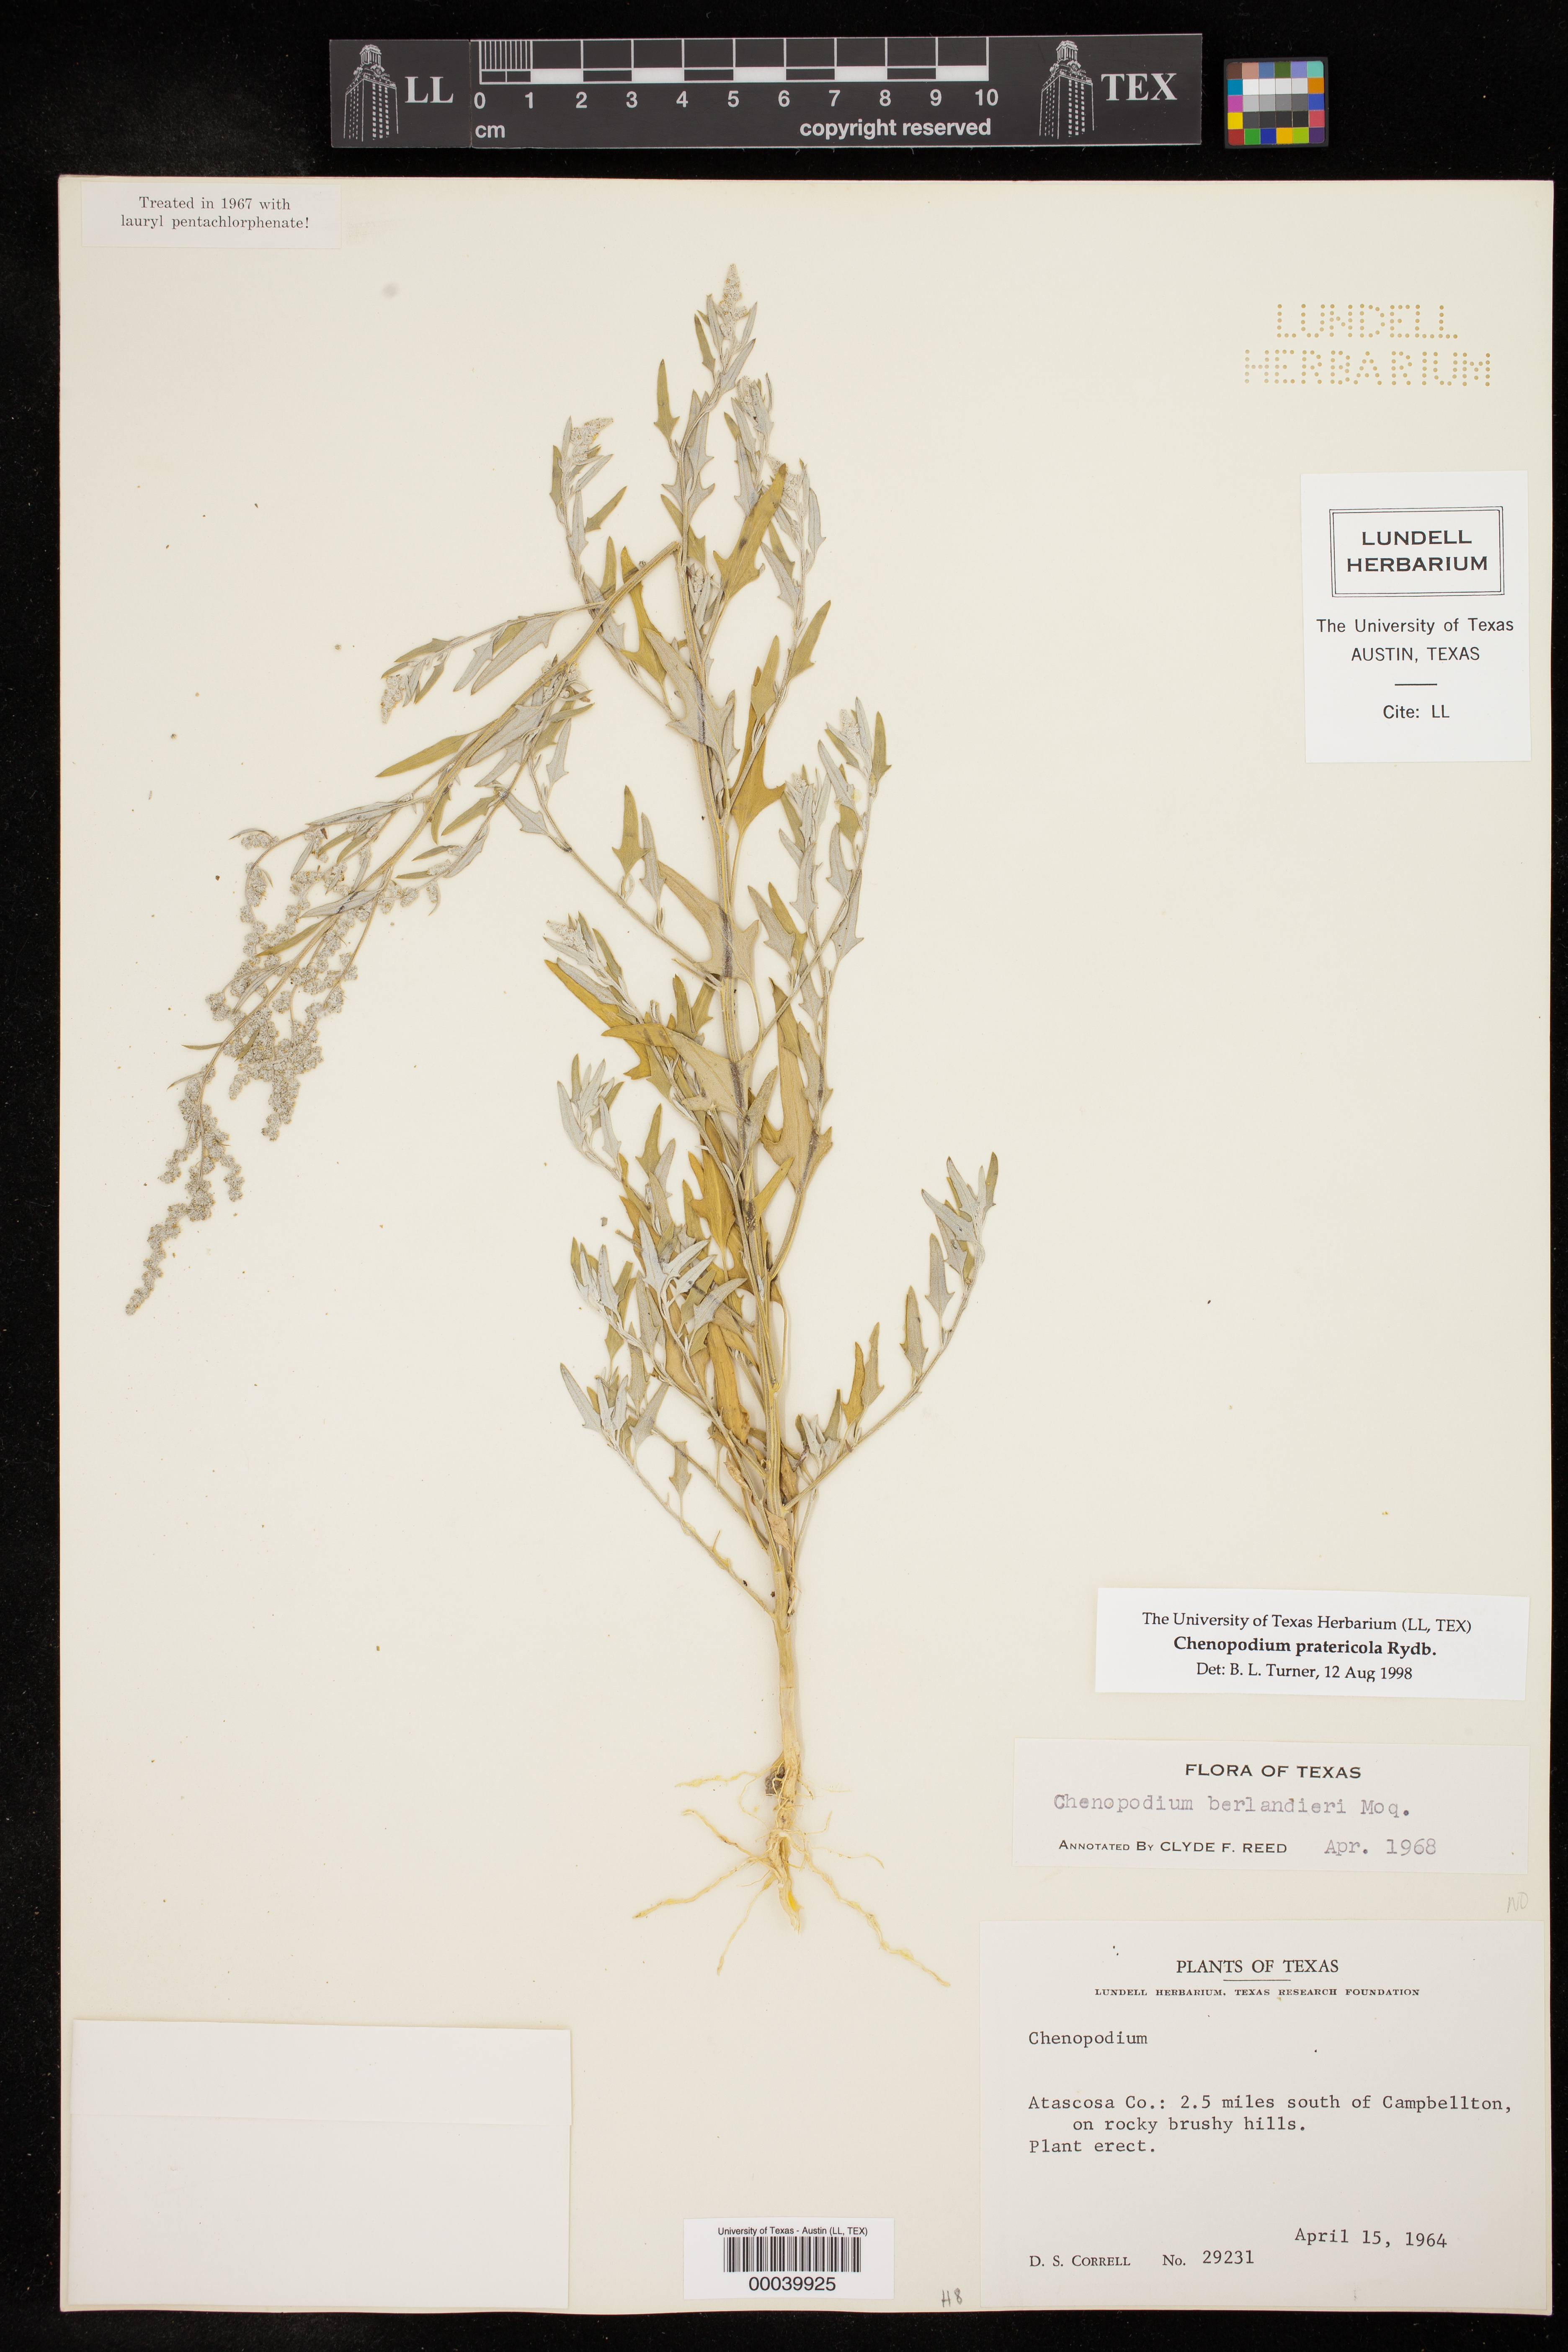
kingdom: Plantae
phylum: Tracheophyta
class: Magnoliopsida
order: Caryophyllales
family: Amaranthaceae
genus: Chenopodium
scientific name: Chenopodium pratericola
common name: Desert goosefoot
